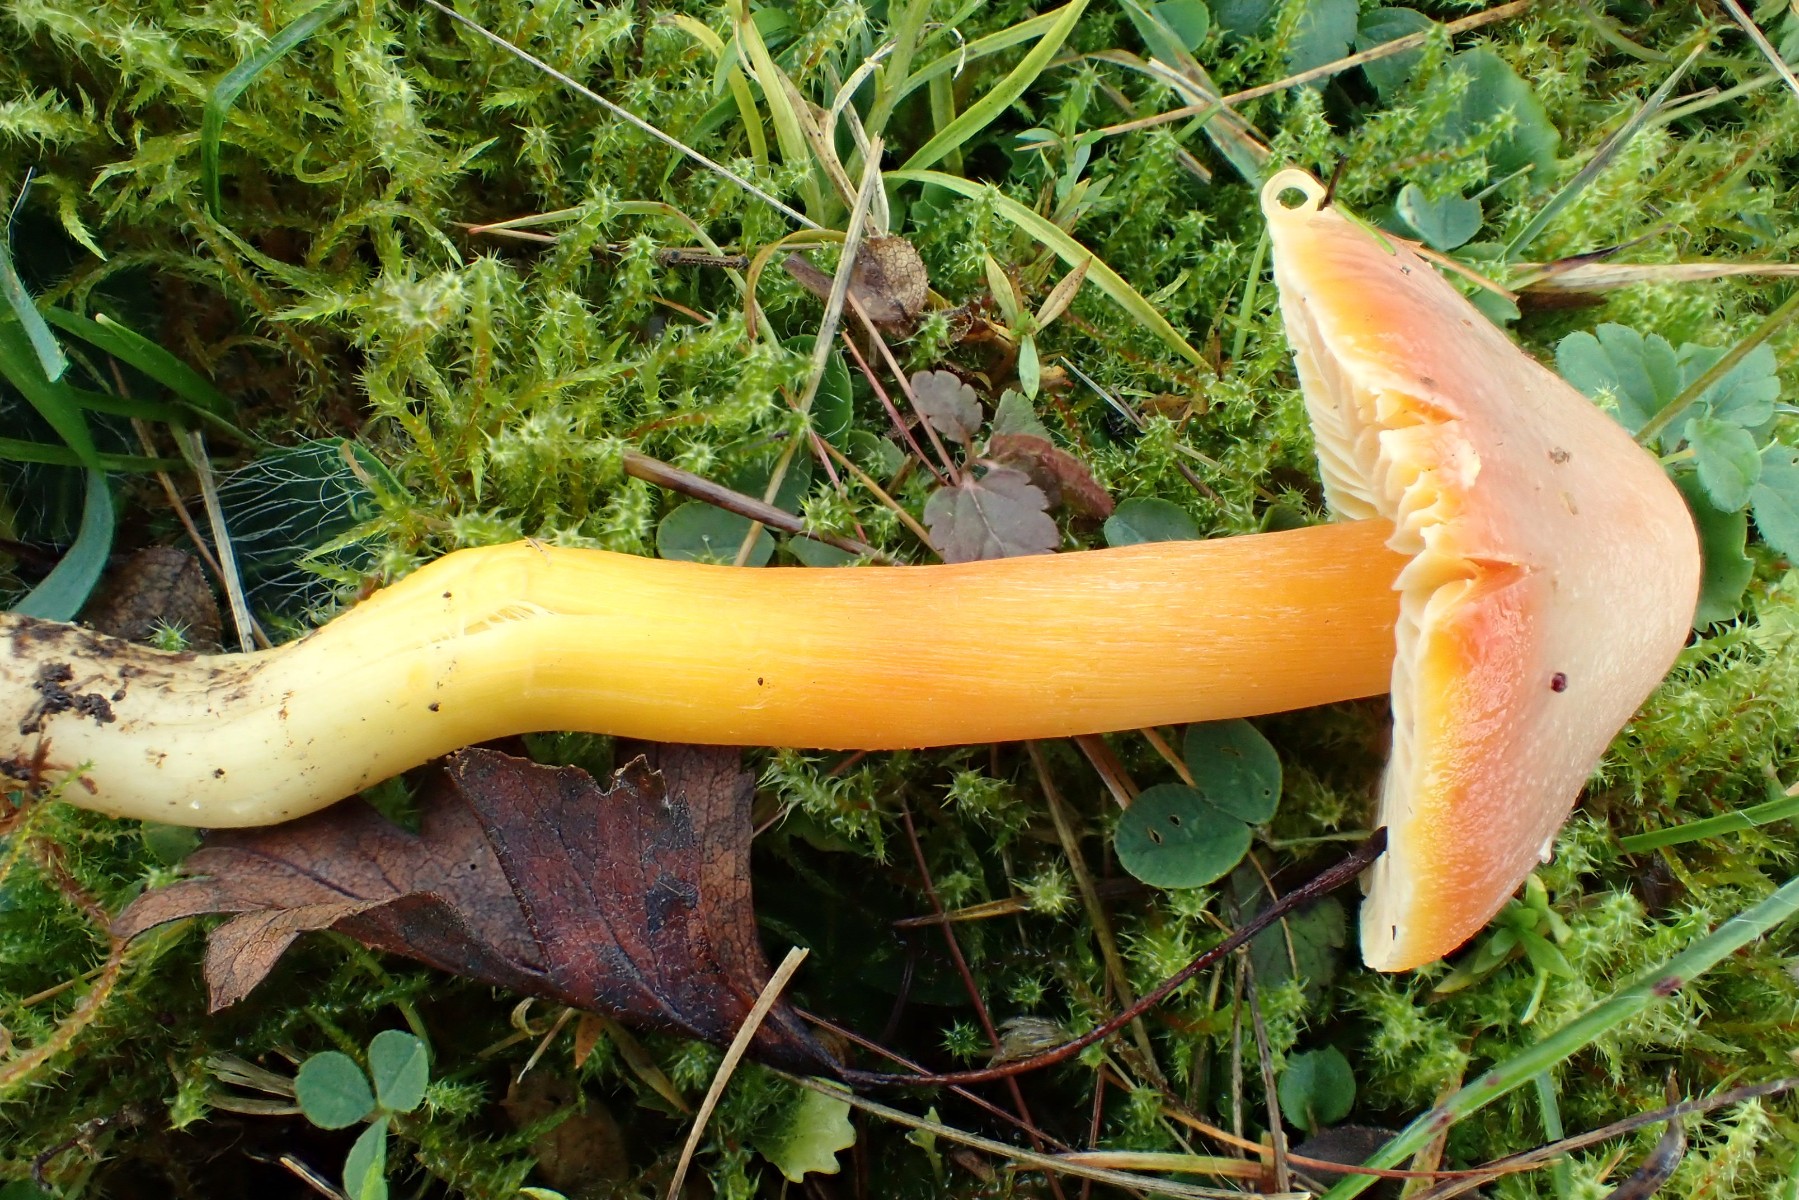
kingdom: Fungi
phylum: Basidiomycota
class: Agaricomycetes
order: Agaricales
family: Hygrophoraceae
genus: Hygrocybe
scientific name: Hygrocybe punicea
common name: skarlagen-vokshat
